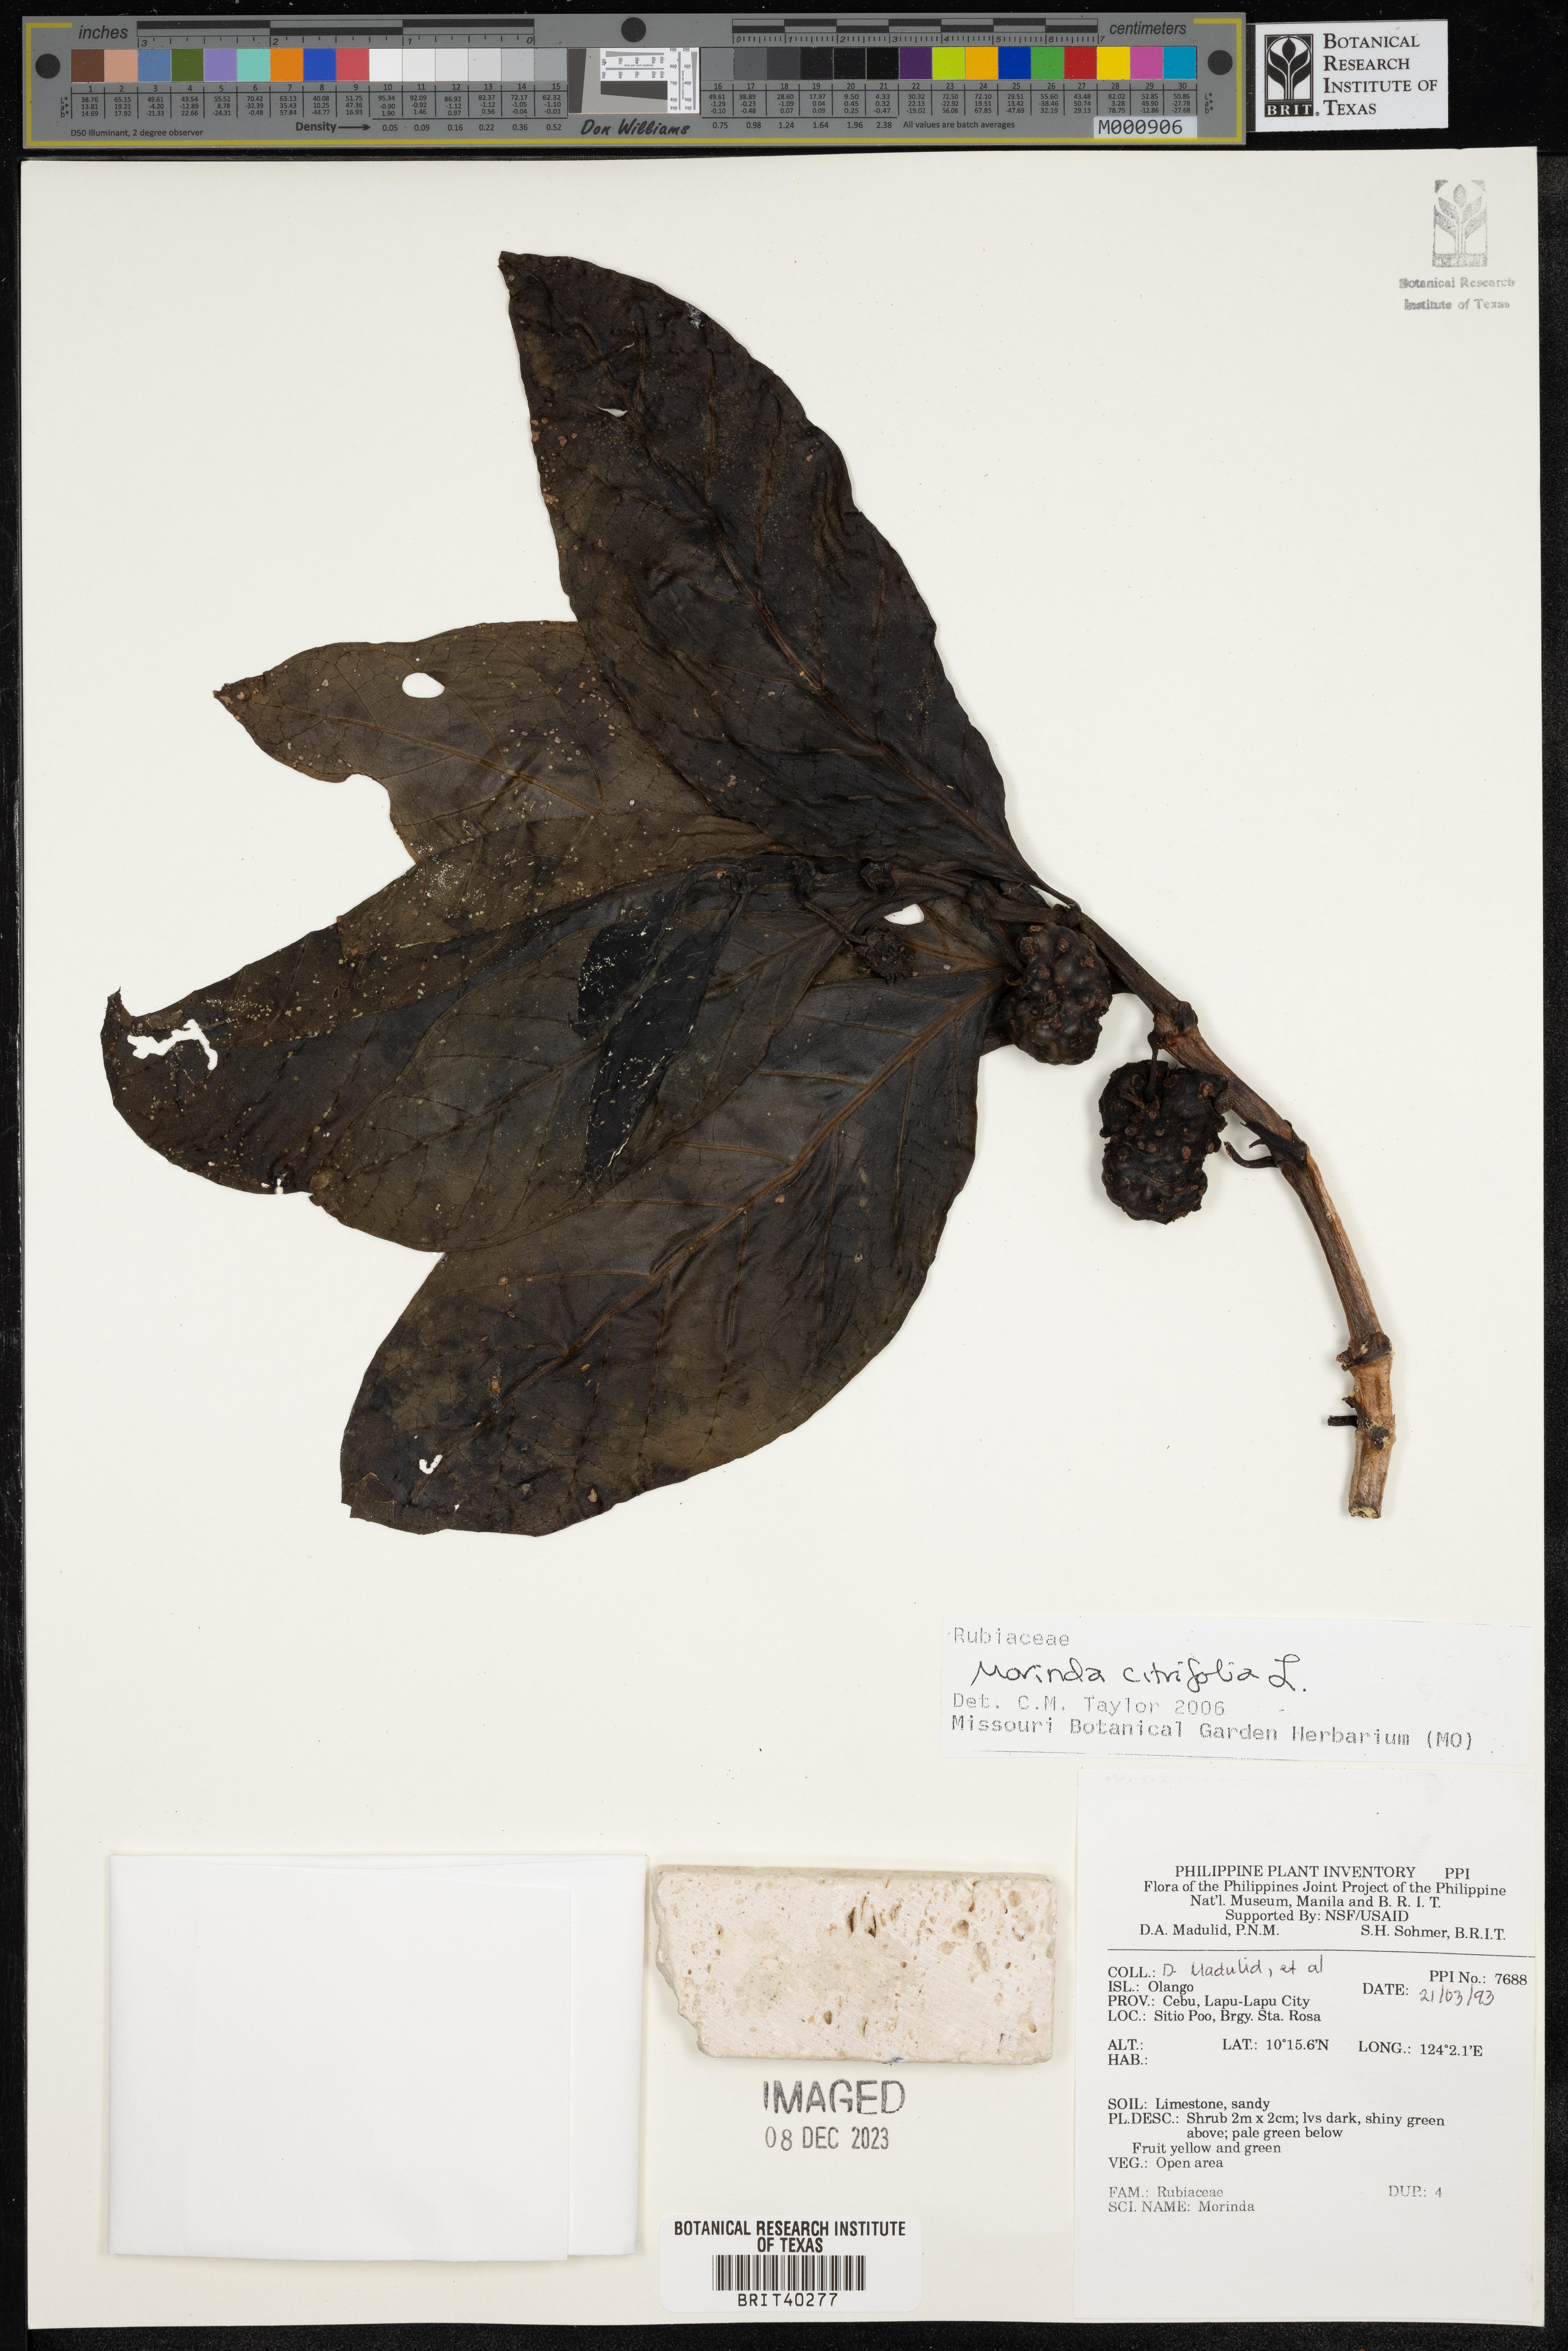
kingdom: Plantae
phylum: Tracheophyta
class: Magnoliopsida
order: Gentianales
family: Rubiaceae
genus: Morinda
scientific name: Morinda citrifolia
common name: Indian-mulberry
